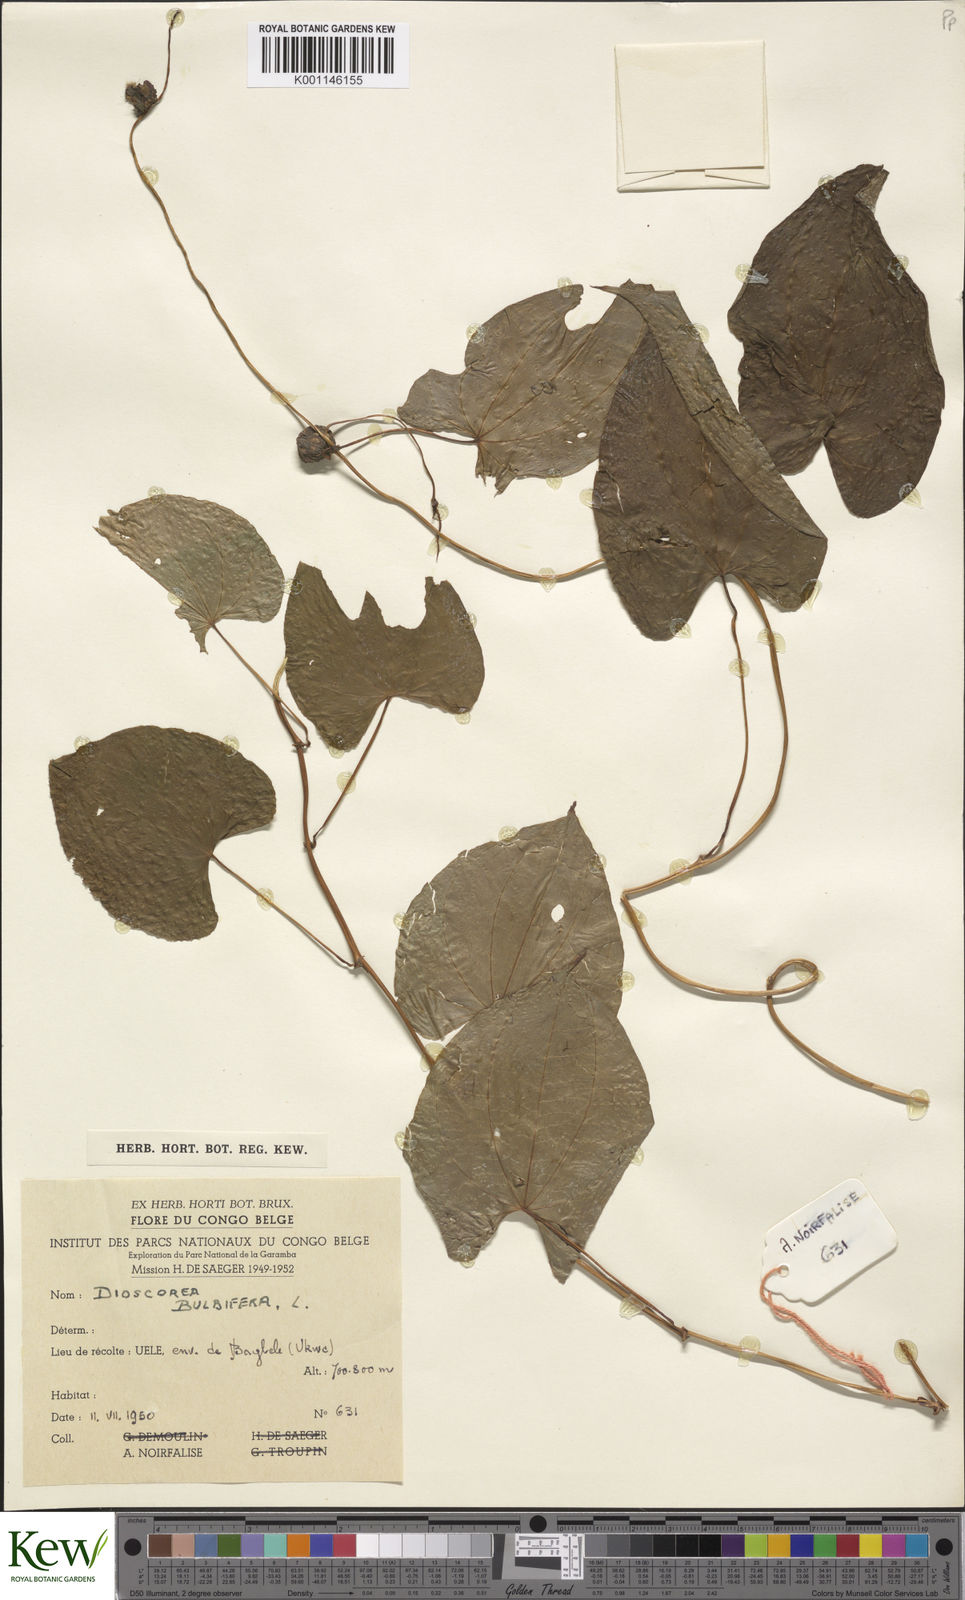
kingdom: Plantae
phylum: Tracheophyta
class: Liliopsida
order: Dioscoreales
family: Dioscoreaceae
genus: Dioscorea
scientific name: Dioscorea bulbifera
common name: Air yam
